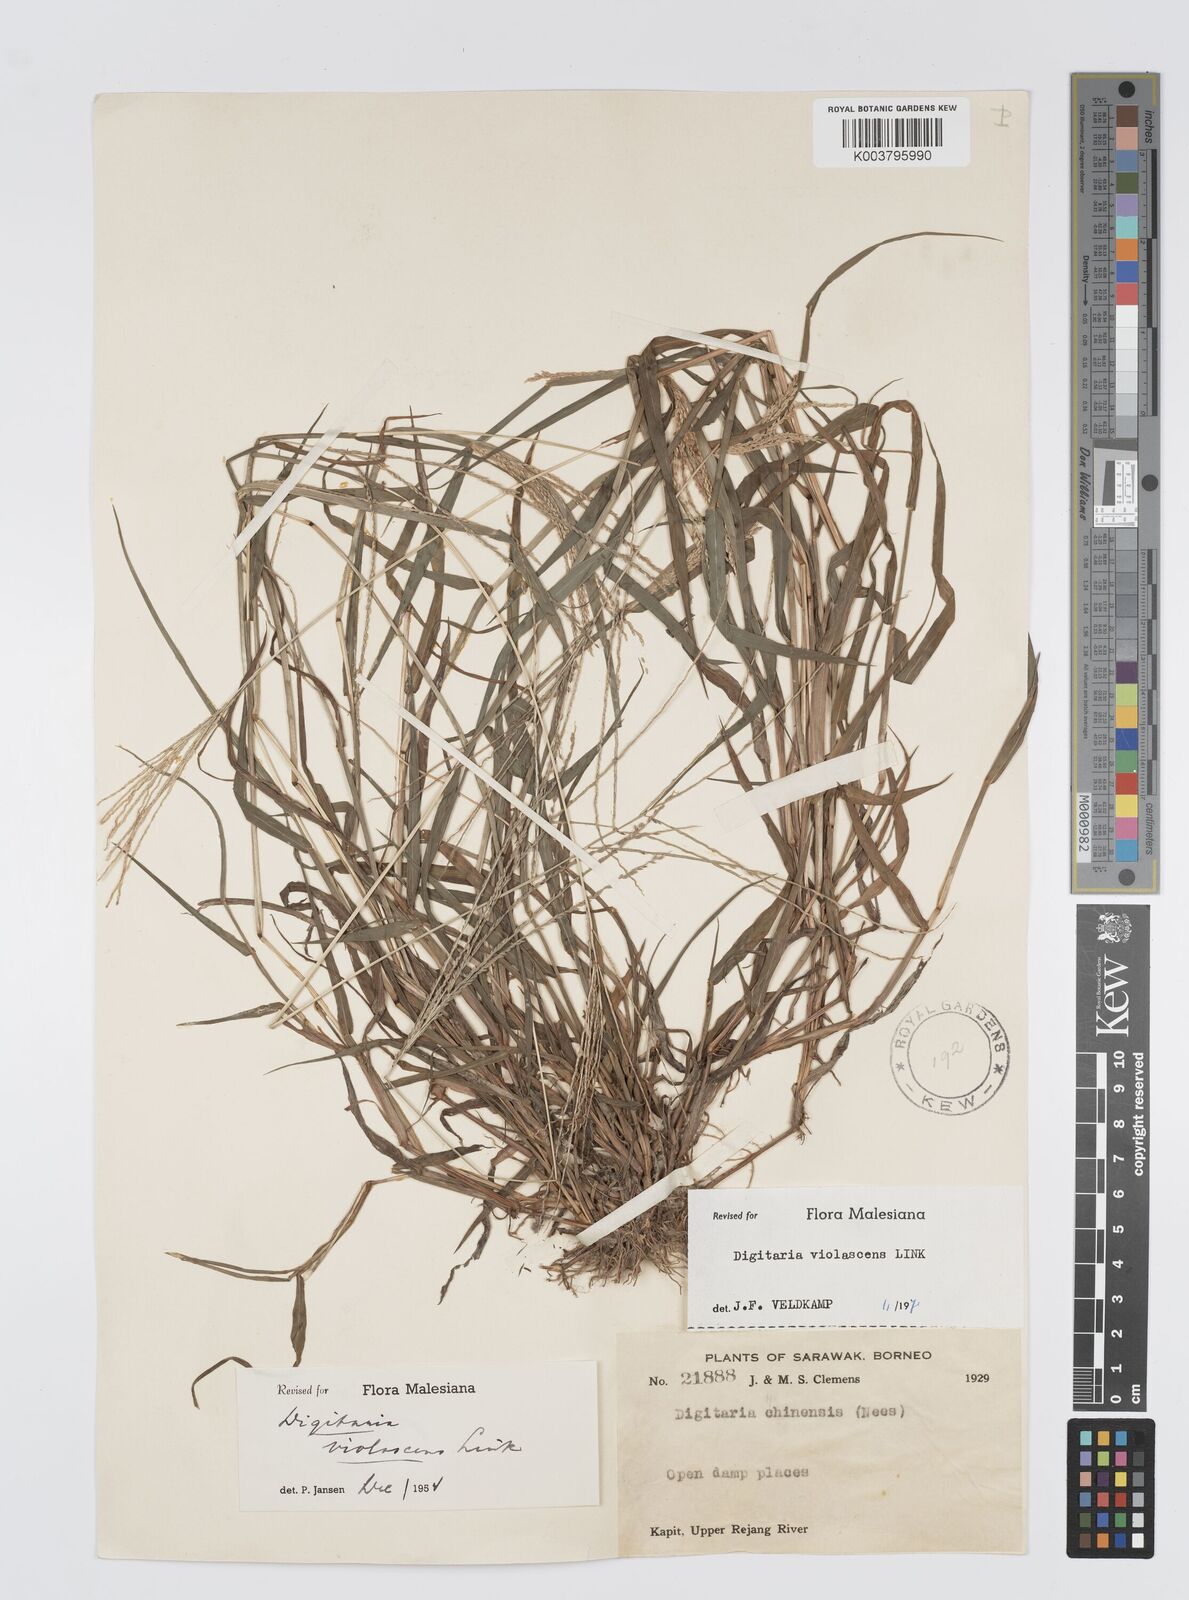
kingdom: Plantae
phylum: Tracheophyta
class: Liliopsida
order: Poales
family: Poaceae
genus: Digitaria
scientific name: Digitaria violascens
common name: Violet crabgrass
